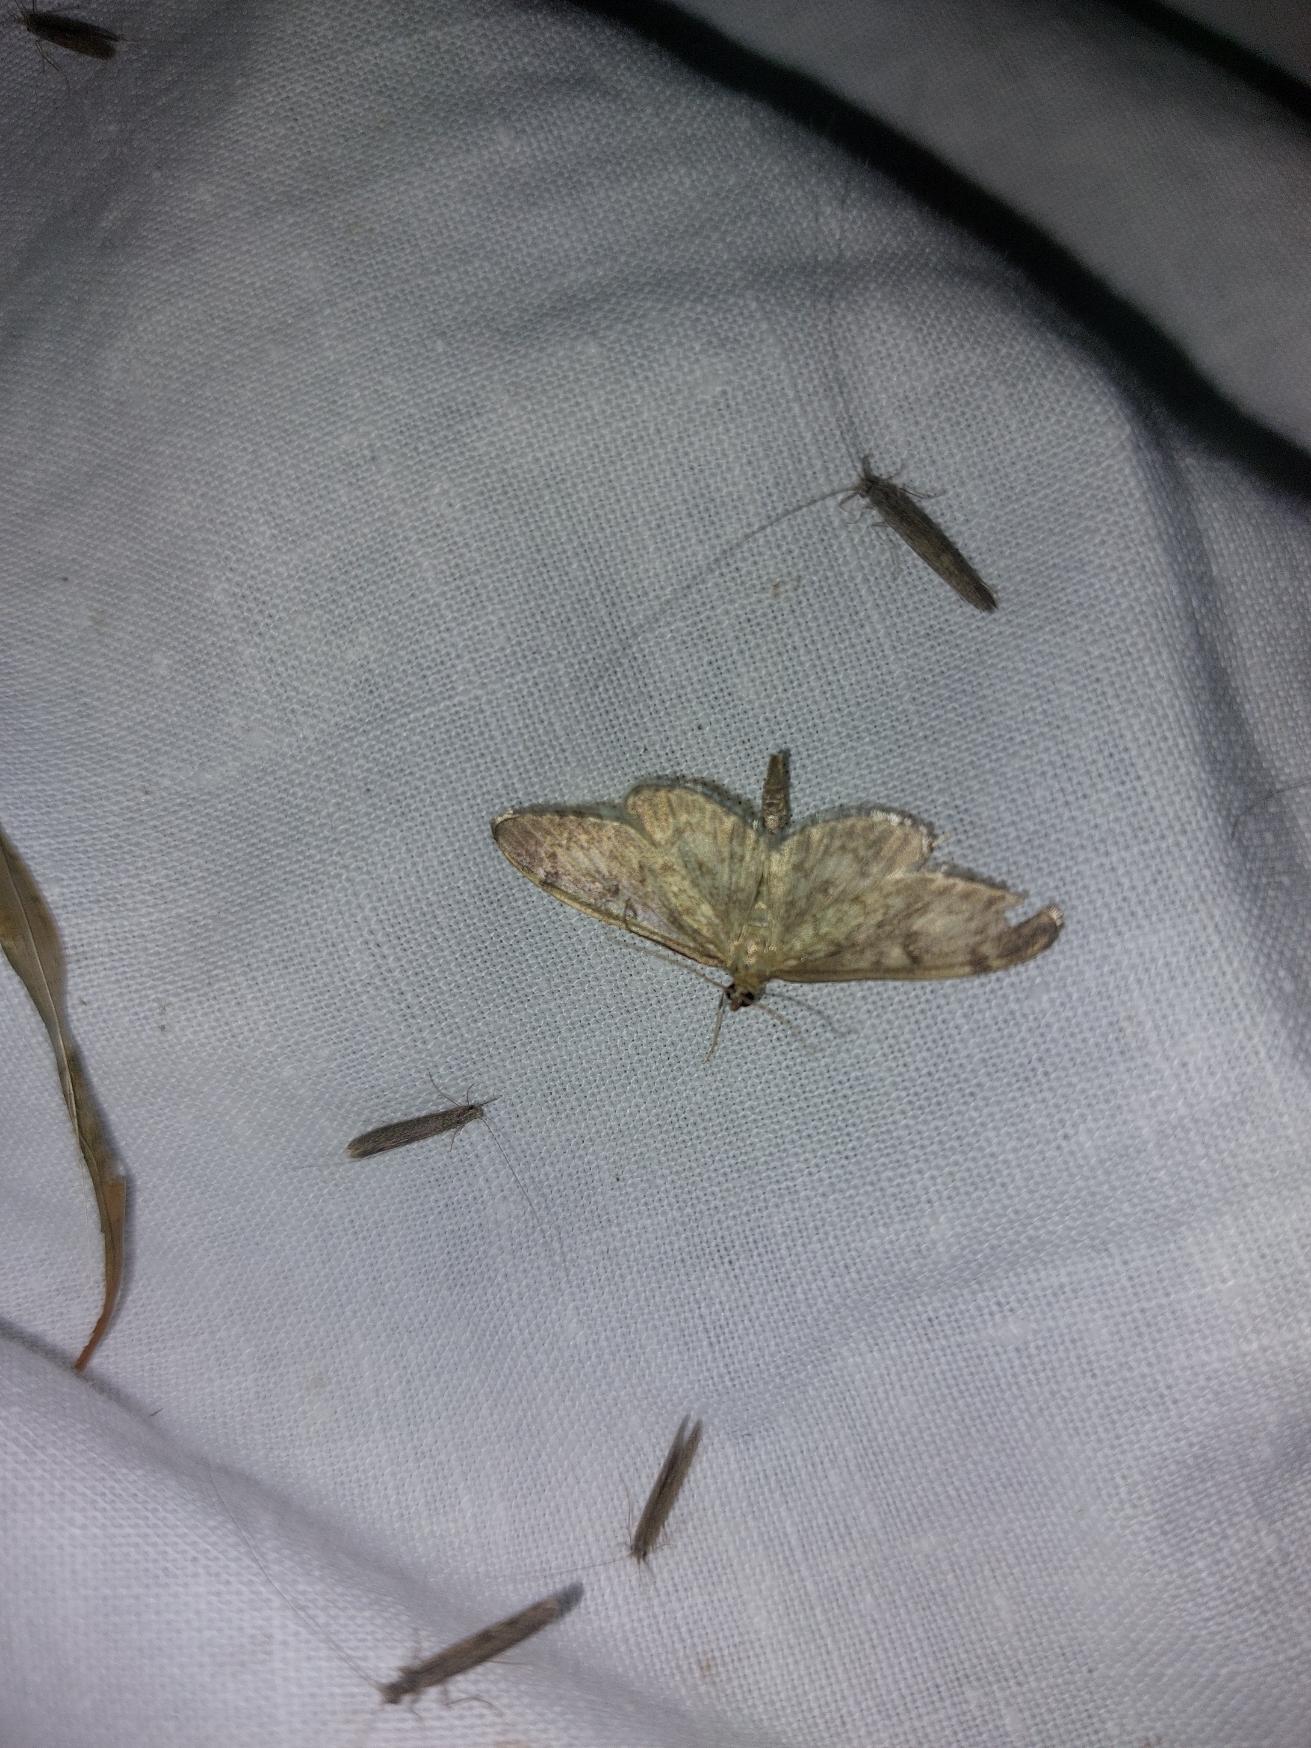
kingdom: Animalia
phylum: Arthropoda
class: Insecta
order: Lepidoptera
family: Crambidae
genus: Anania
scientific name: Anania lancealis
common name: Hjortetrøsthalvmøl
